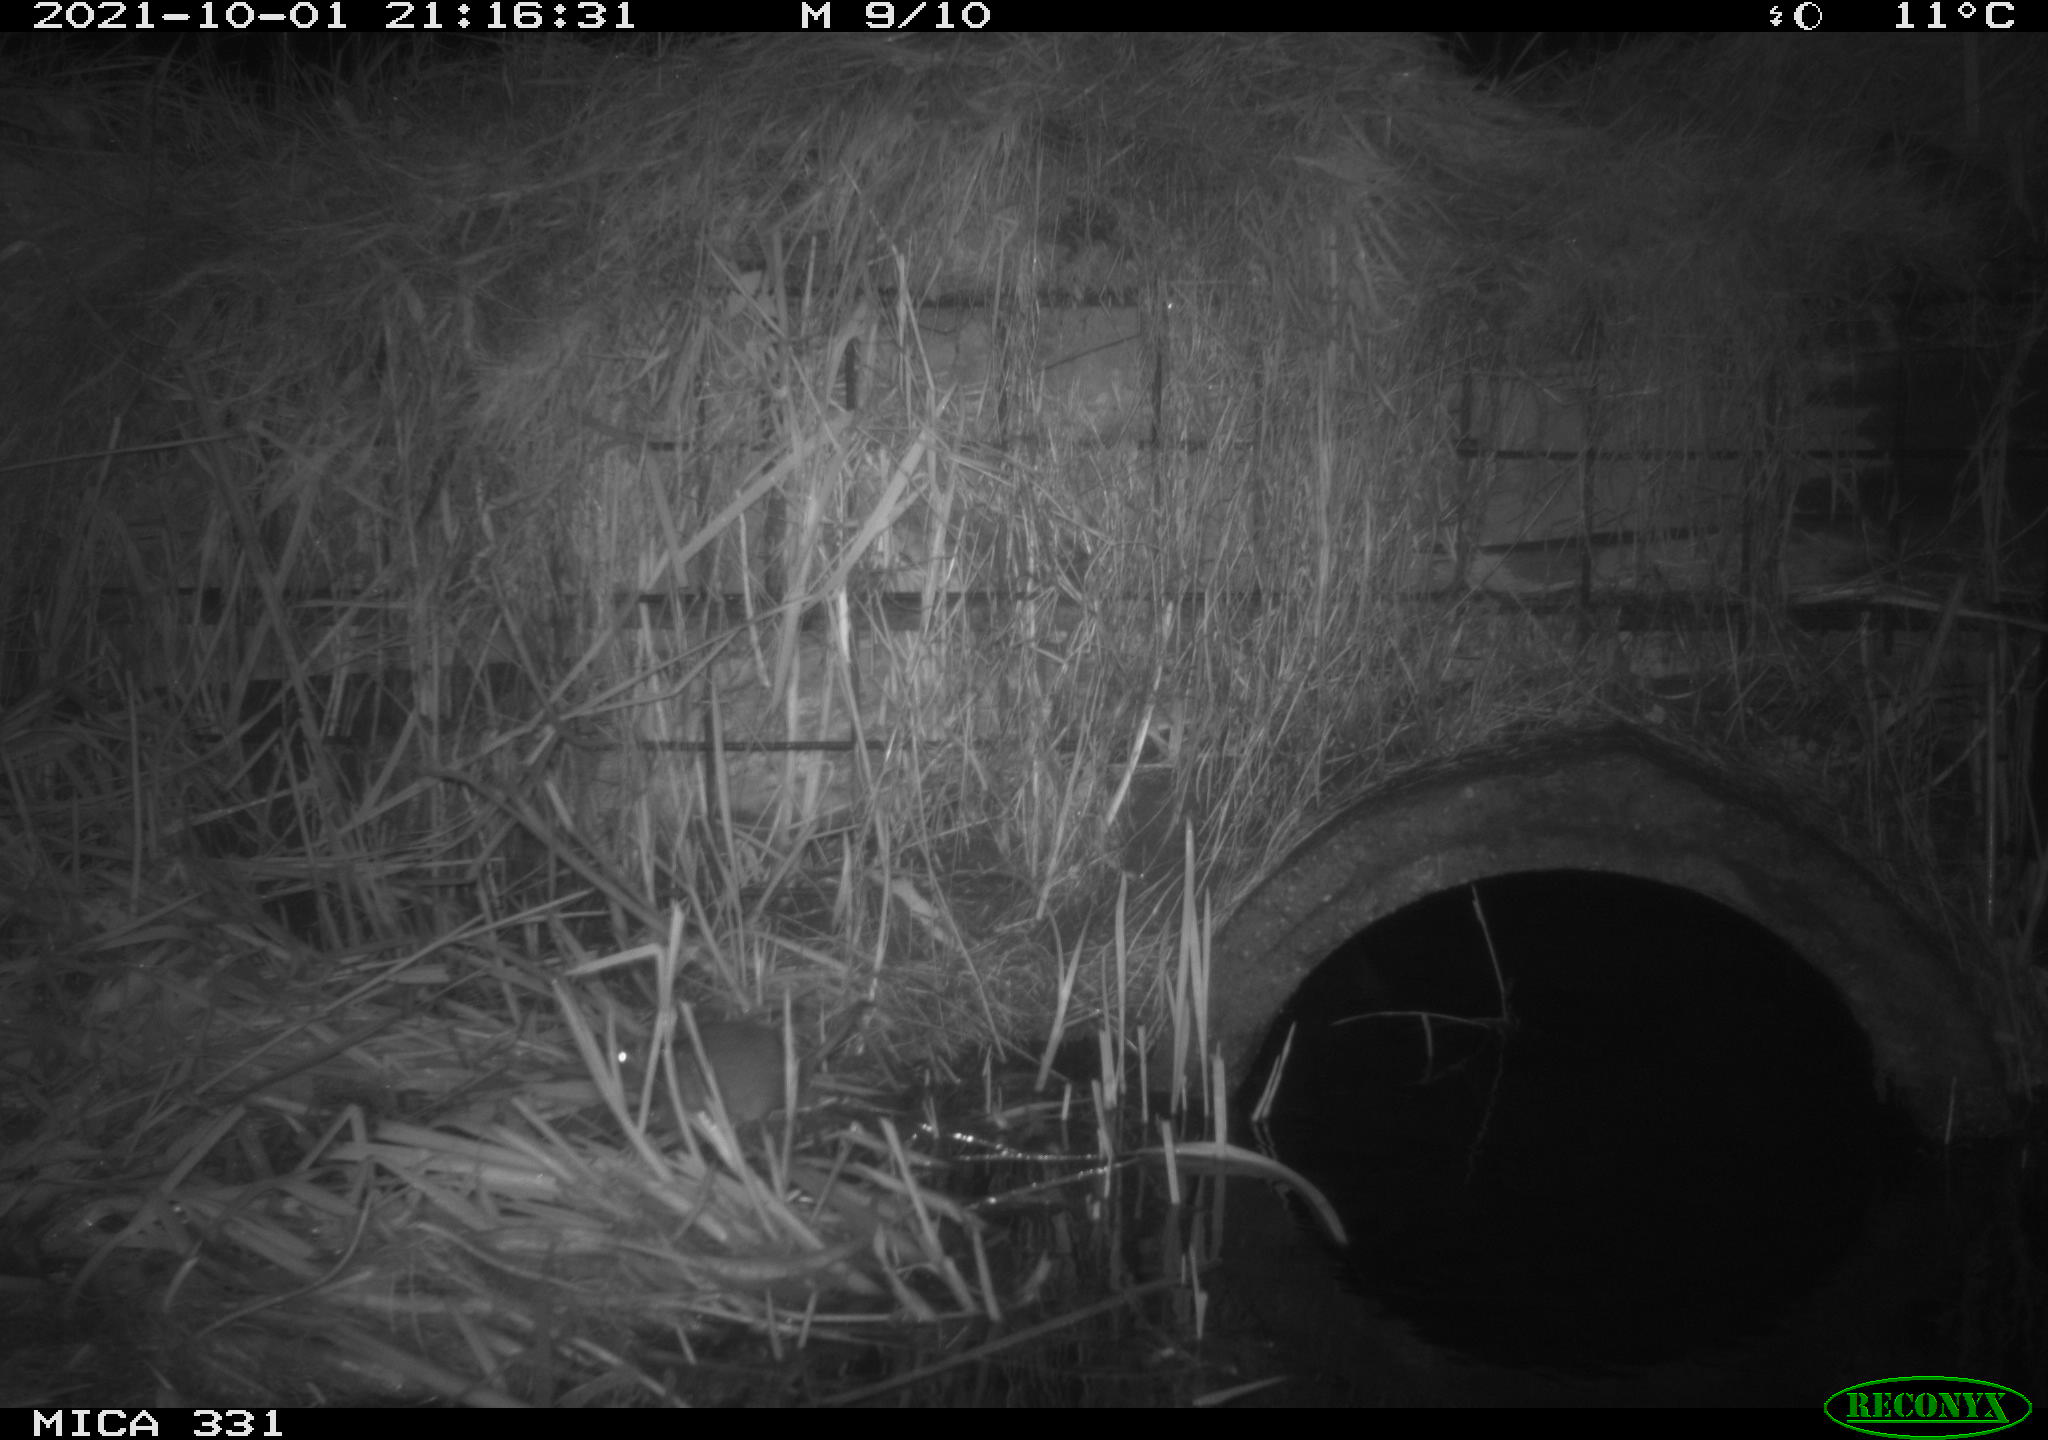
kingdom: Animalia
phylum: Chordata
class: Mammalia
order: Rodentia
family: Muridae
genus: Rattus
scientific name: Rattus norvegicus
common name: Brown rat
